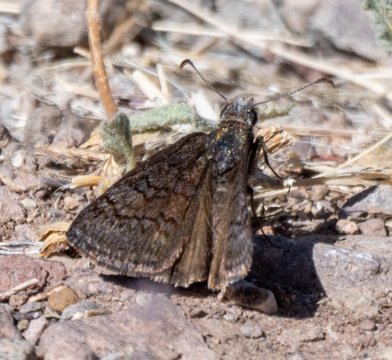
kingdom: Animalia
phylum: Arthropoda
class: Insecta
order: Lepidoptera
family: Hesperiidae
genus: Erynnis
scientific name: Erynnis brizo
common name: Sleepy Duskywing
